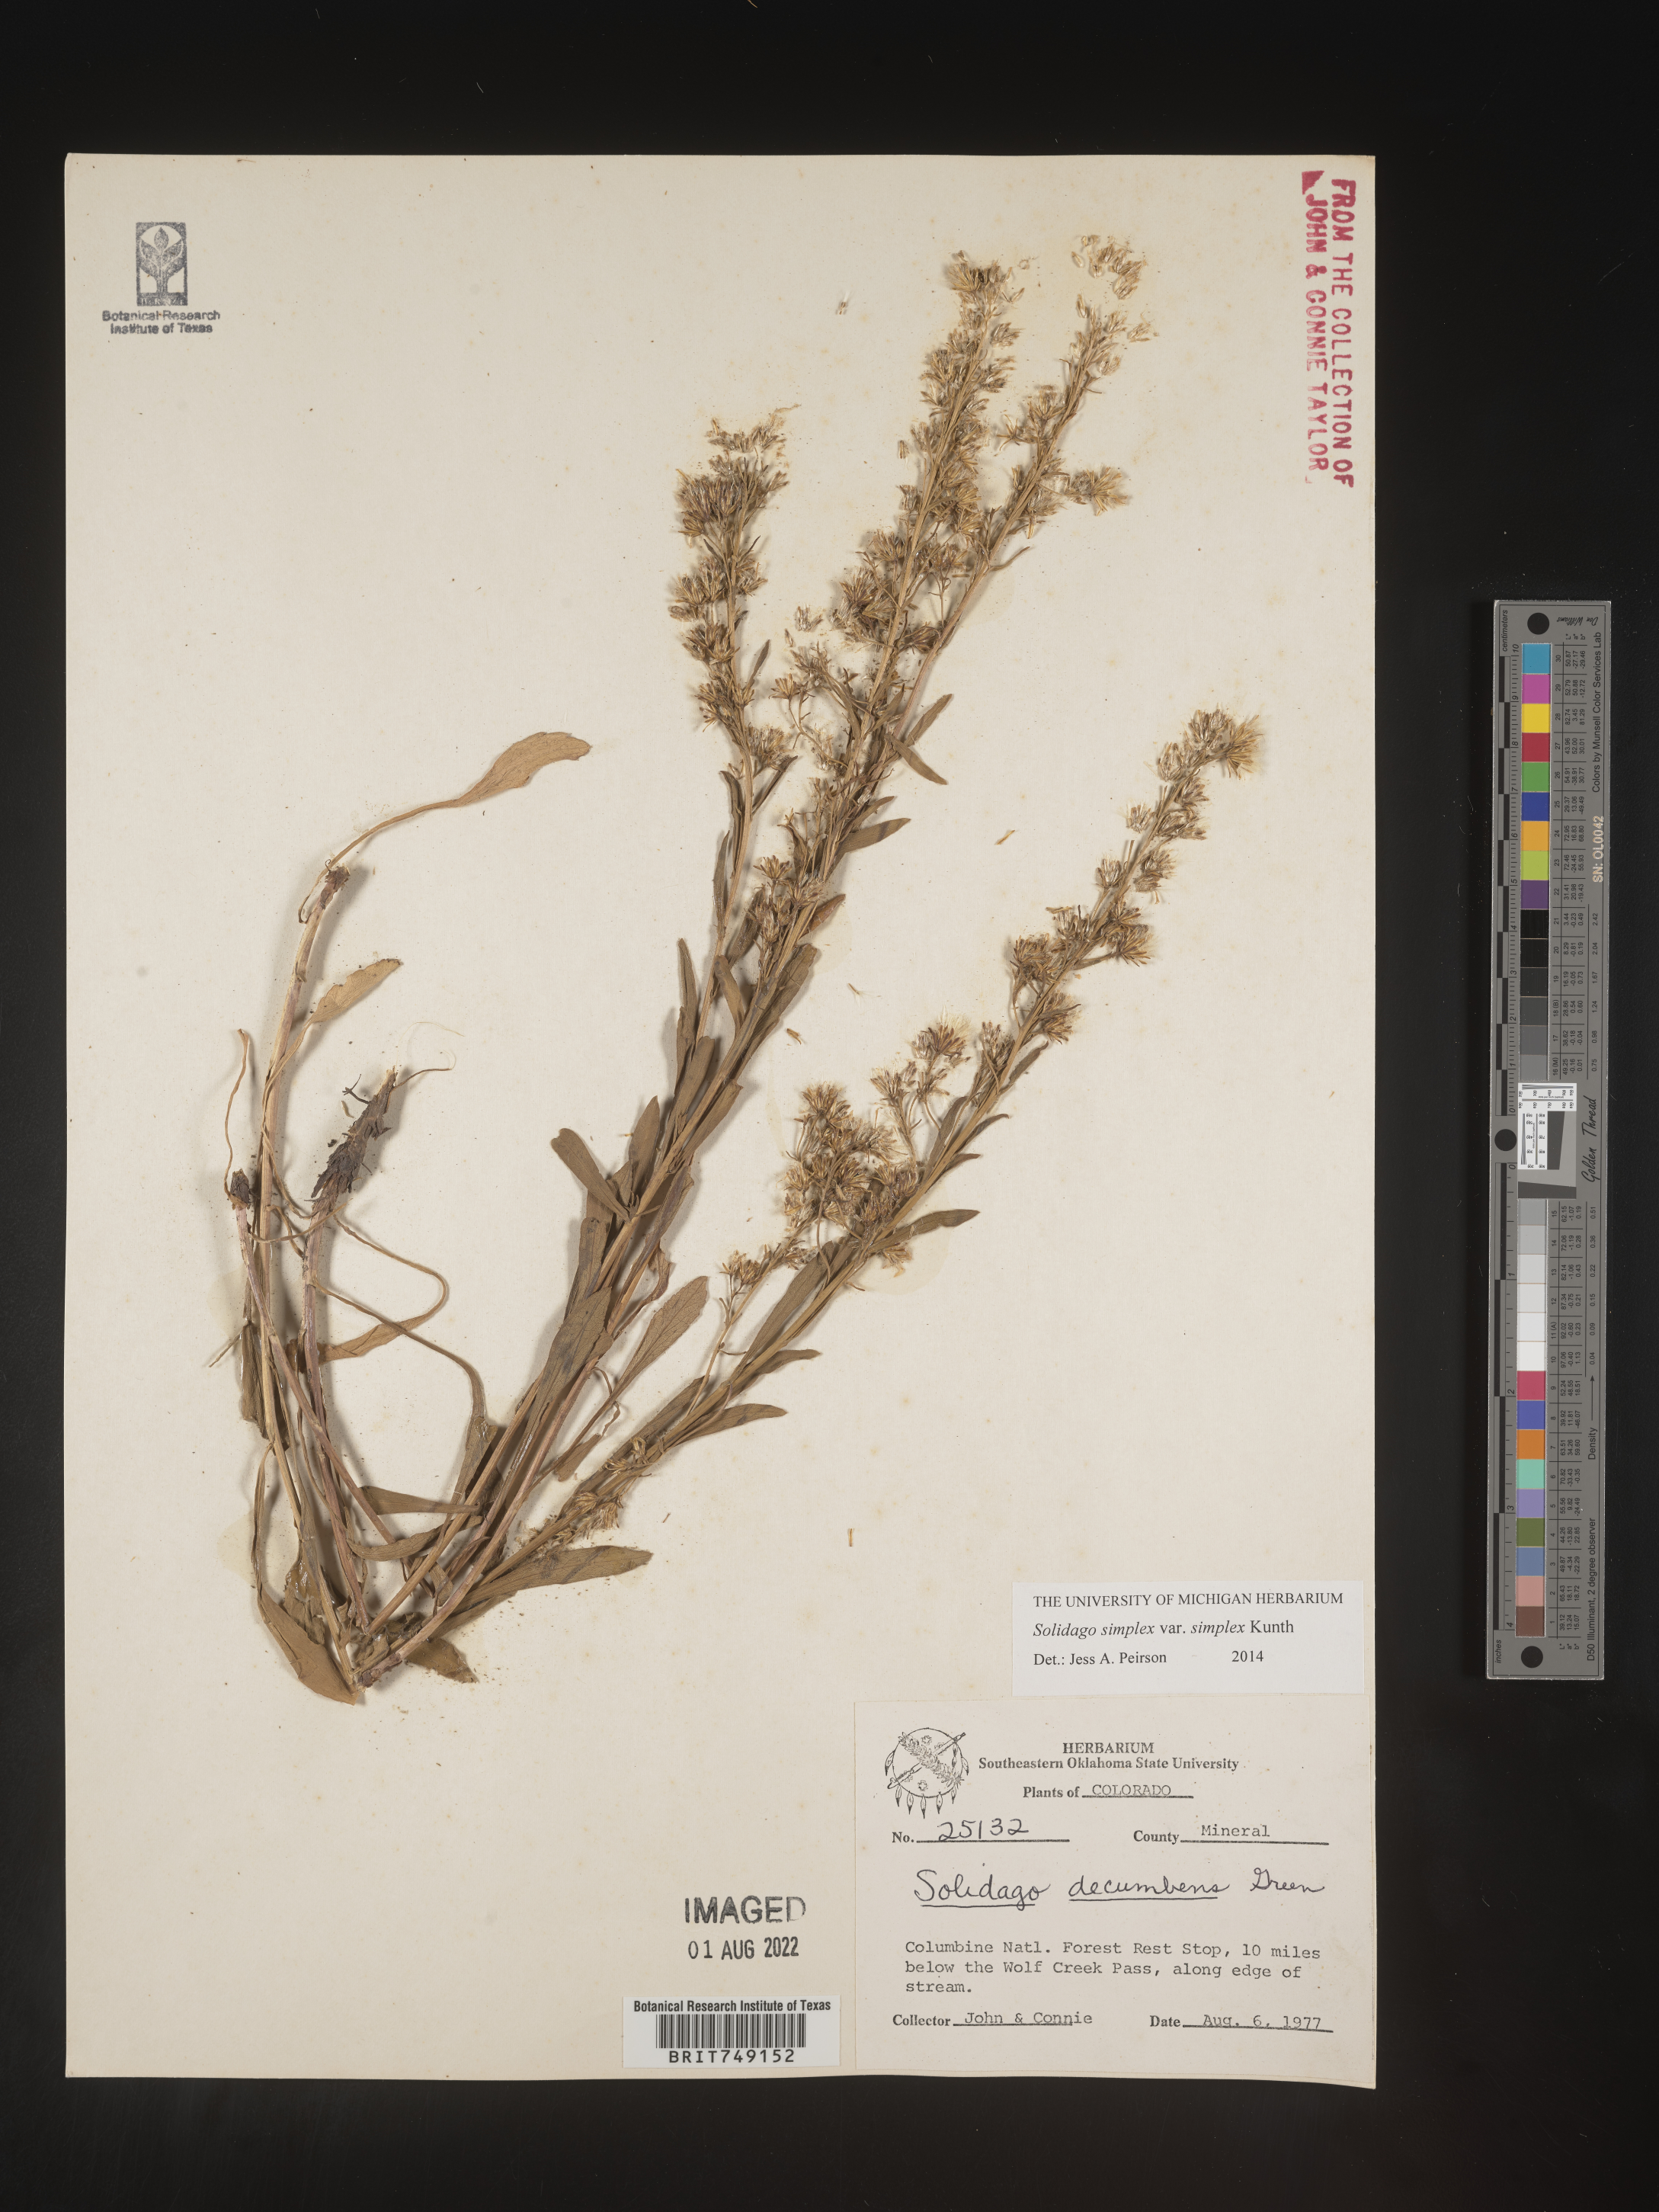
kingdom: Plantae
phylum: Tracheophyta
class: Magnoliopsida
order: Asterales
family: Asteraceae
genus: Solidago
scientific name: Solidago simplex
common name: Sticky goldenrod
